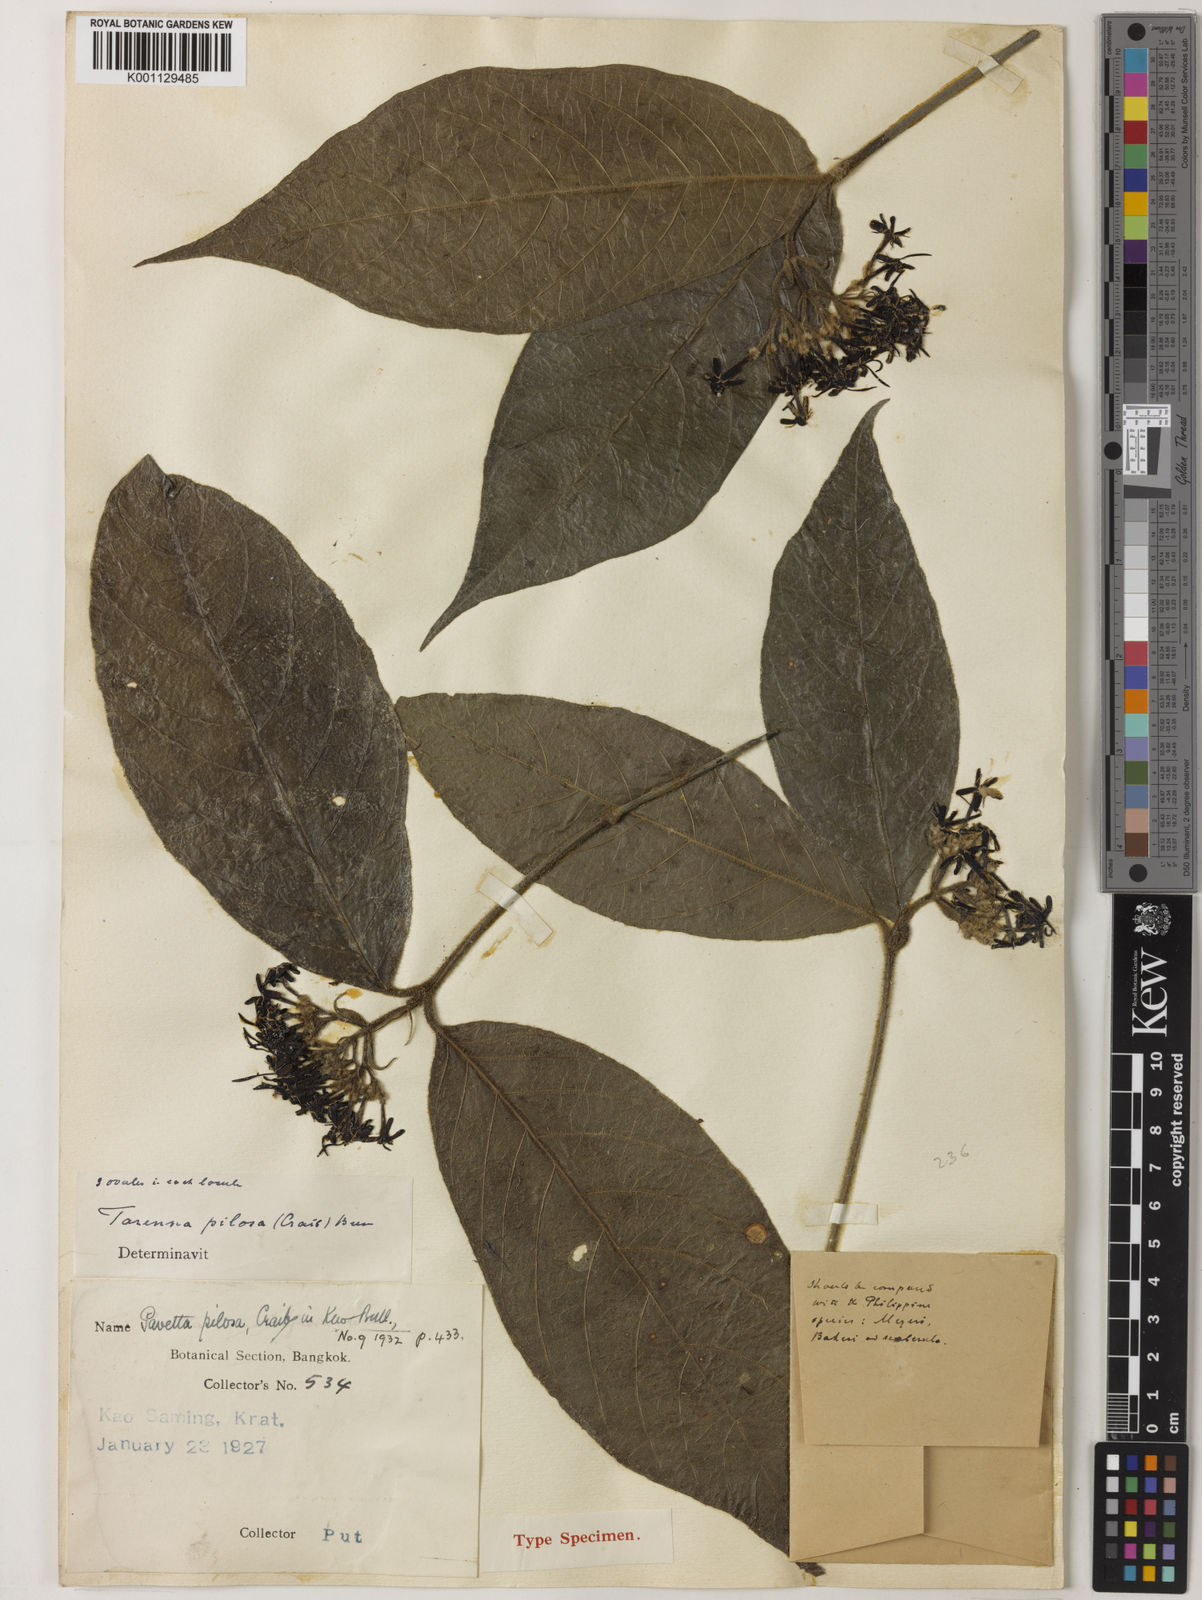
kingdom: Plantae
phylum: Tracheophyta
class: Magnoliopsida
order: Gentianales
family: Rubiaceae
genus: Tarenna
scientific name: Tarenna pilosa
